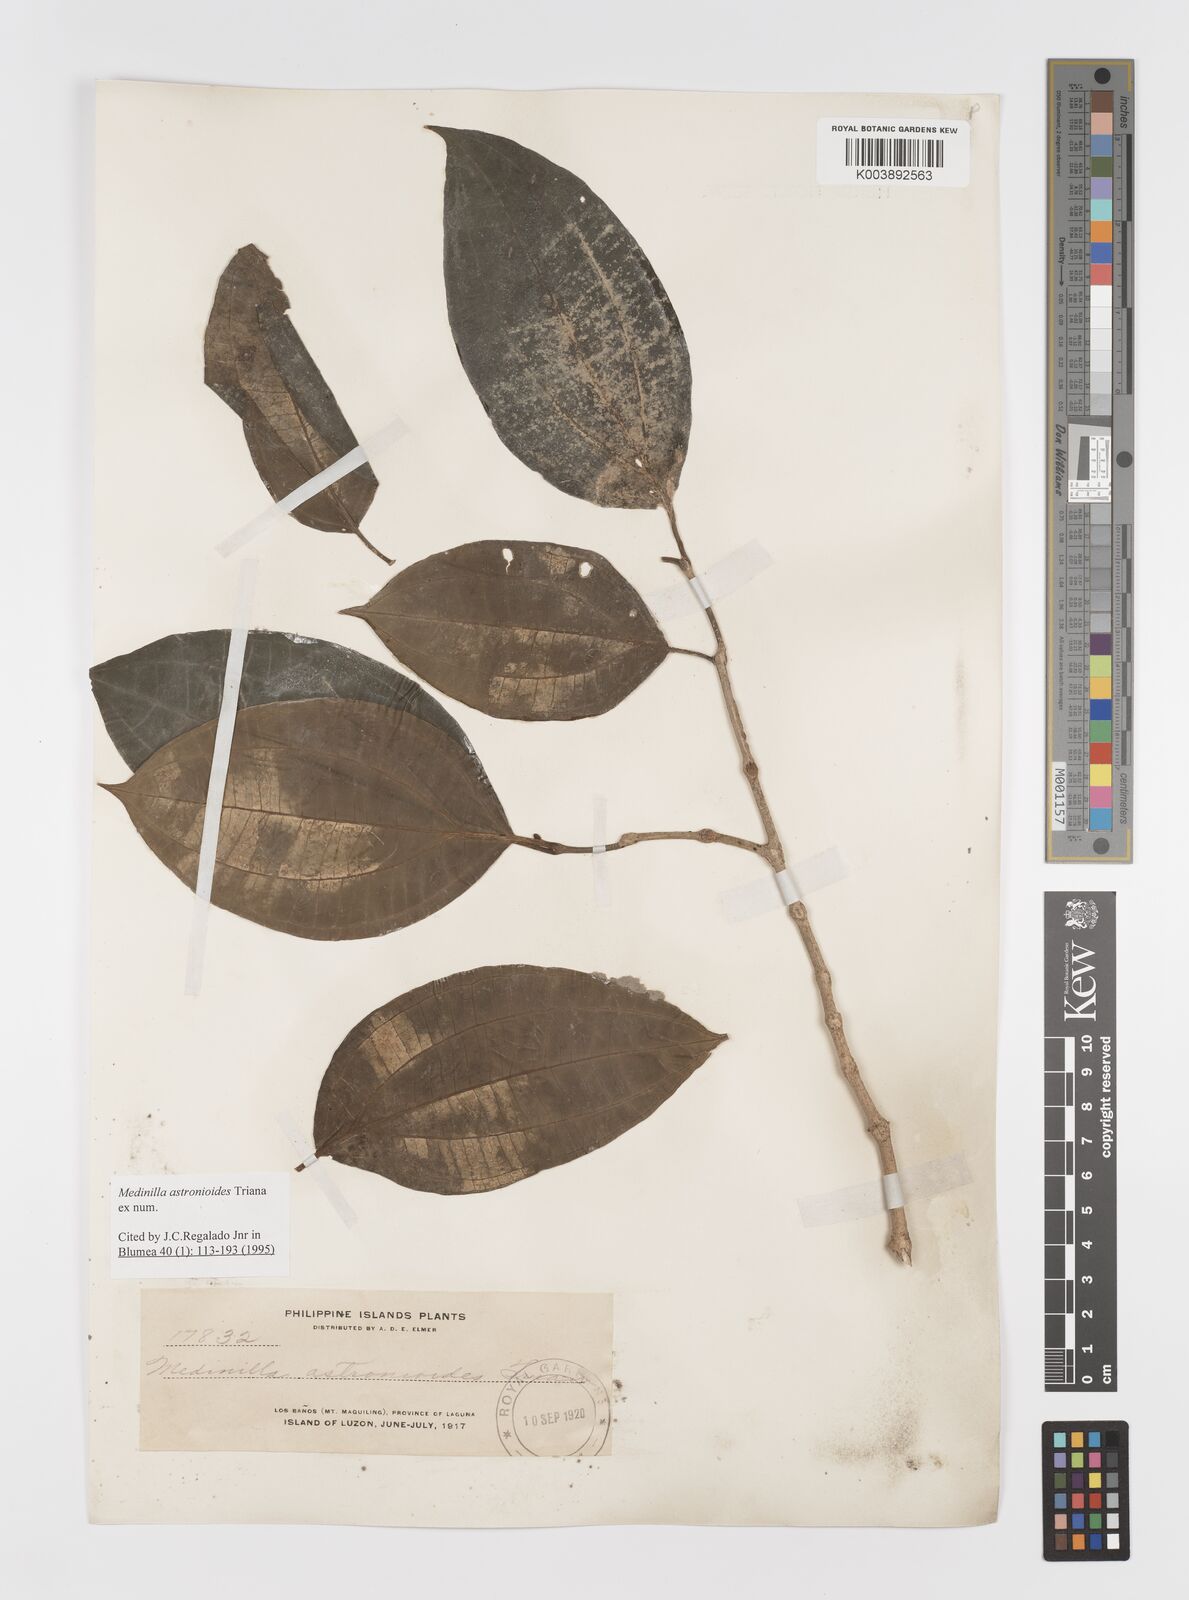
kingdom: Plantae
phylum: Tracheophyta
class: Magnoliopsida
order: Myrtales
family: Melastomataceae
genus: Medinilla
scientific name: Medinilla astronioides
